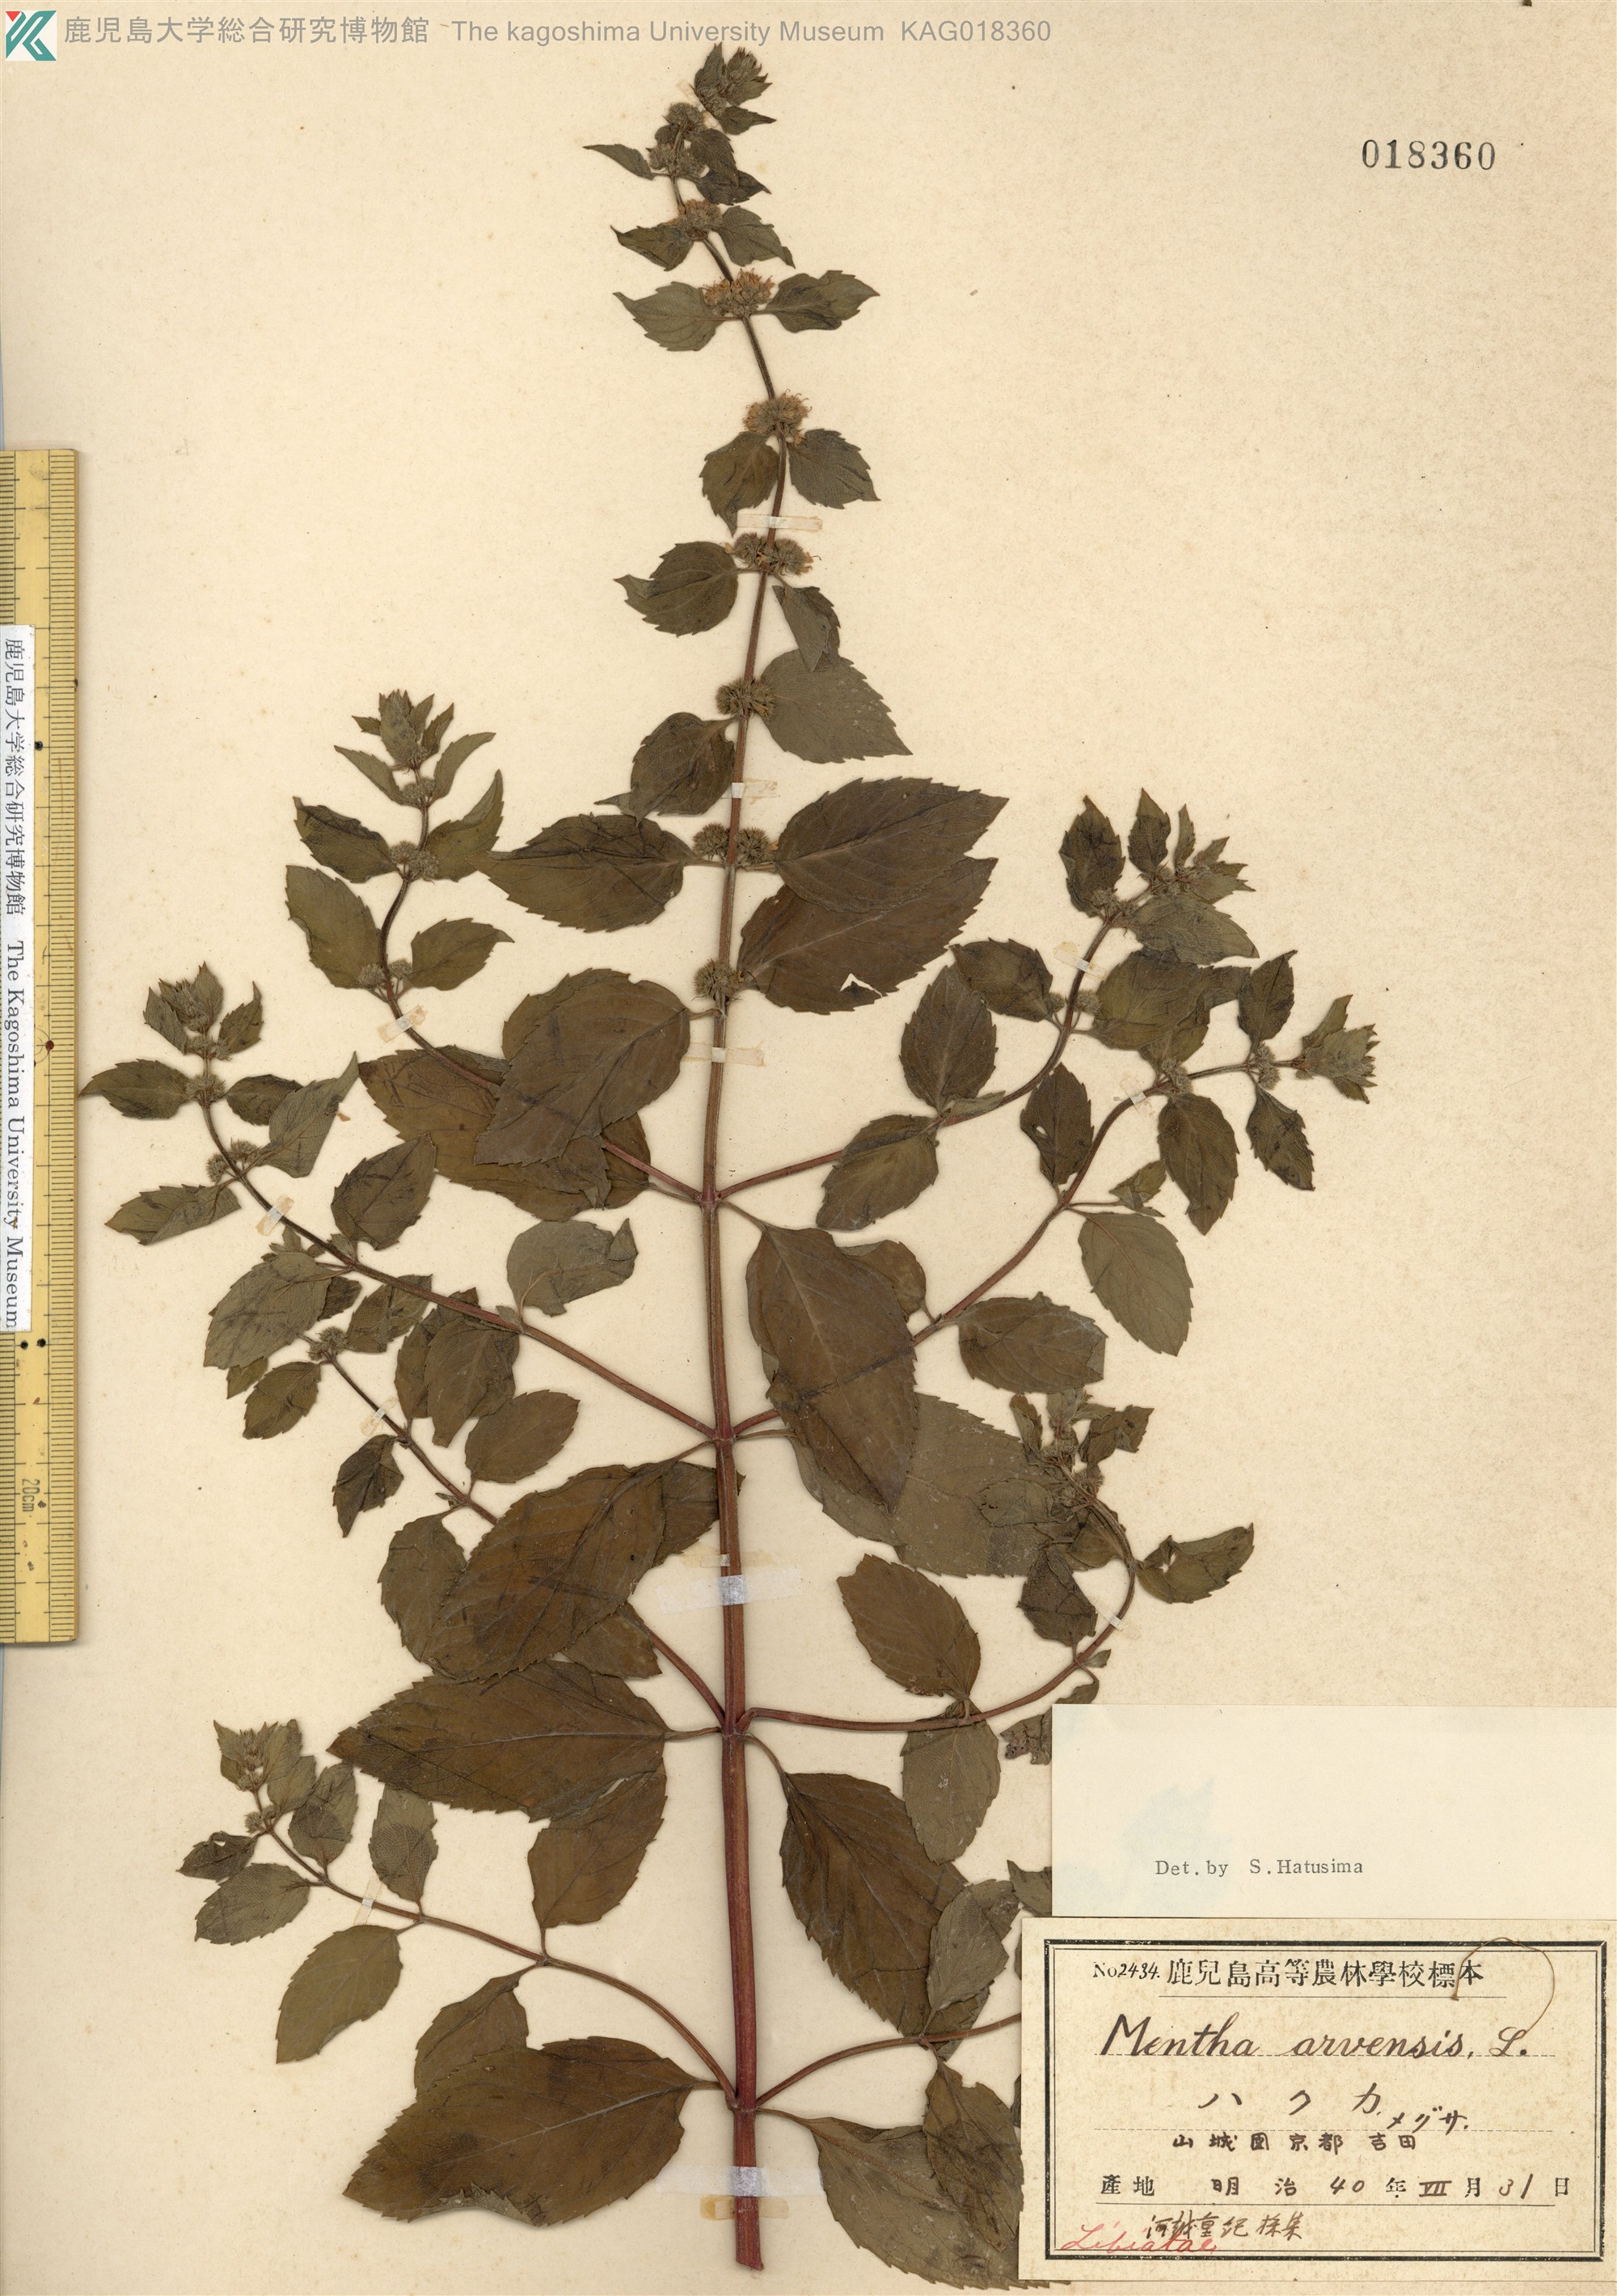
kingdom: Plantae
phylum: Tracheophyta
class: Magnoliopsida
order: Lamiales
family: Lamiaceae
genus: Mentha
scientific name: Mentha canadensis
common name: ハッカ
